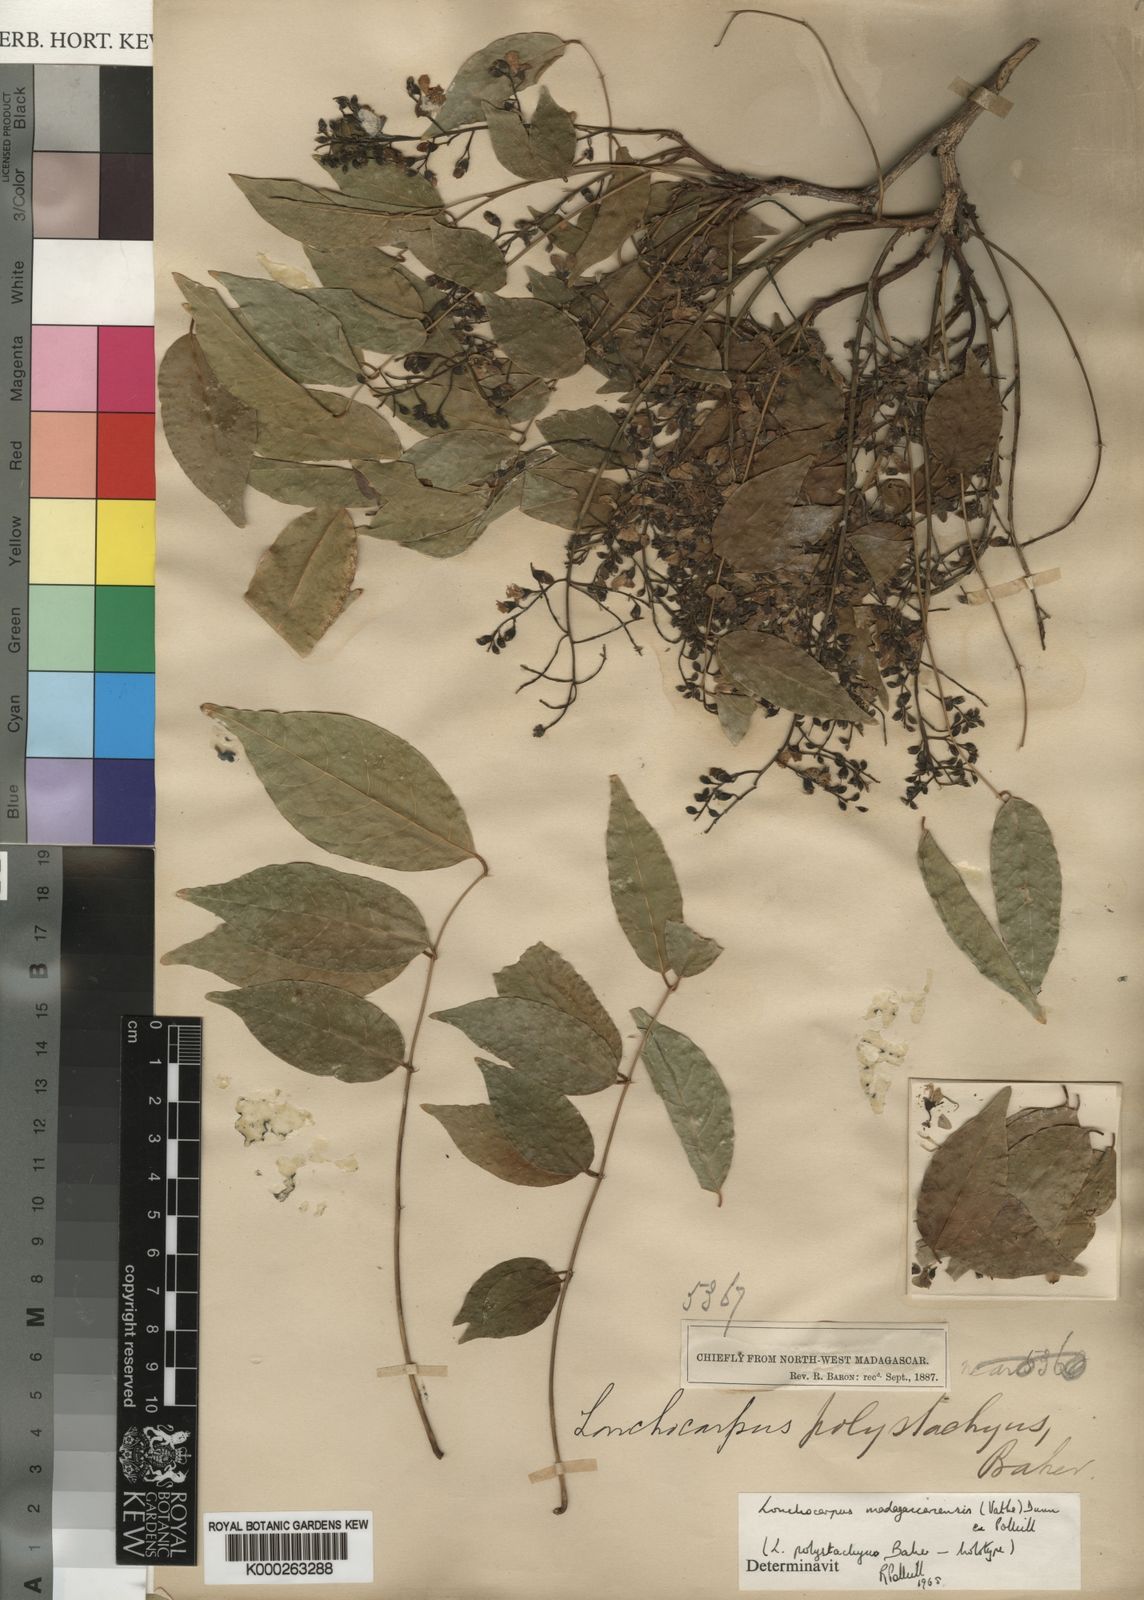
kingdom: Plantae
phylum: Tracheophyta
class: Magnoliopsida
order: Fabales
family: Fabaceae
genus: Lonchocarpus
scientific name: Lonchocarpus madagascariensis
